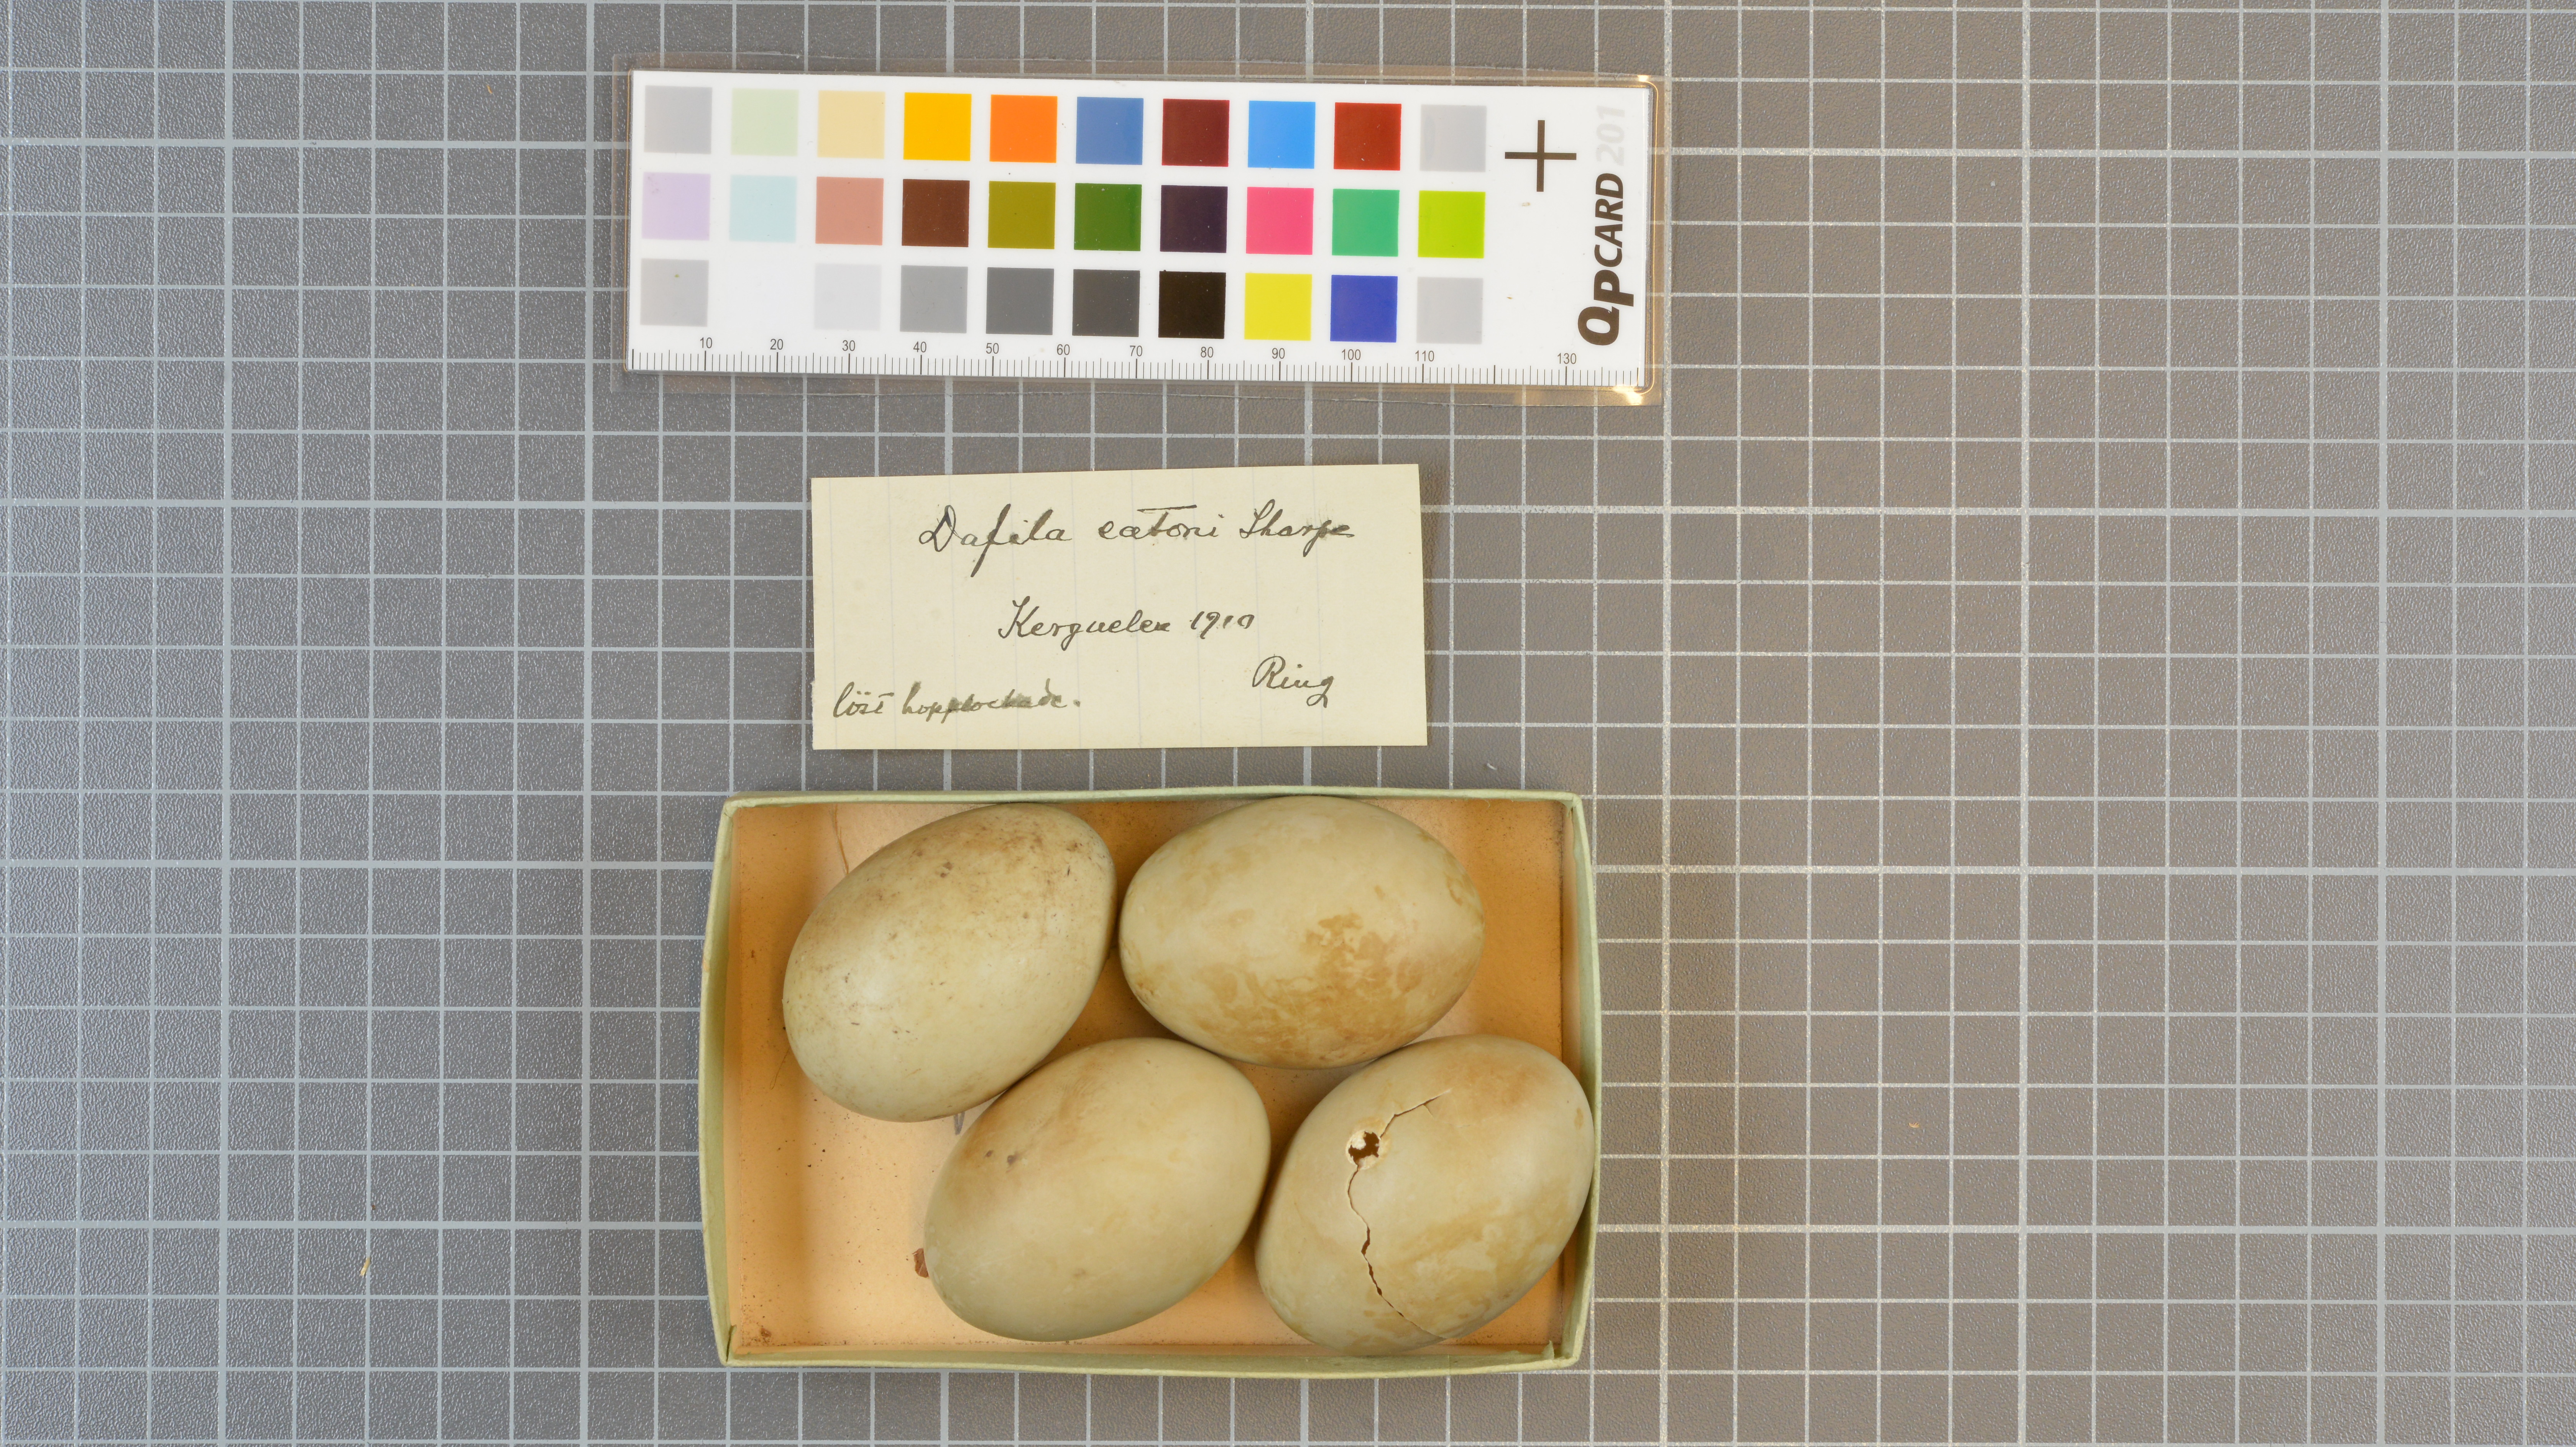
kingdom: Animalia
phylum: Chordata
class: Aves
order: Anseriformes
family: Anatidae
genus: Anas
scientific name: Anas eatoni
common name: Eaton's pintail
